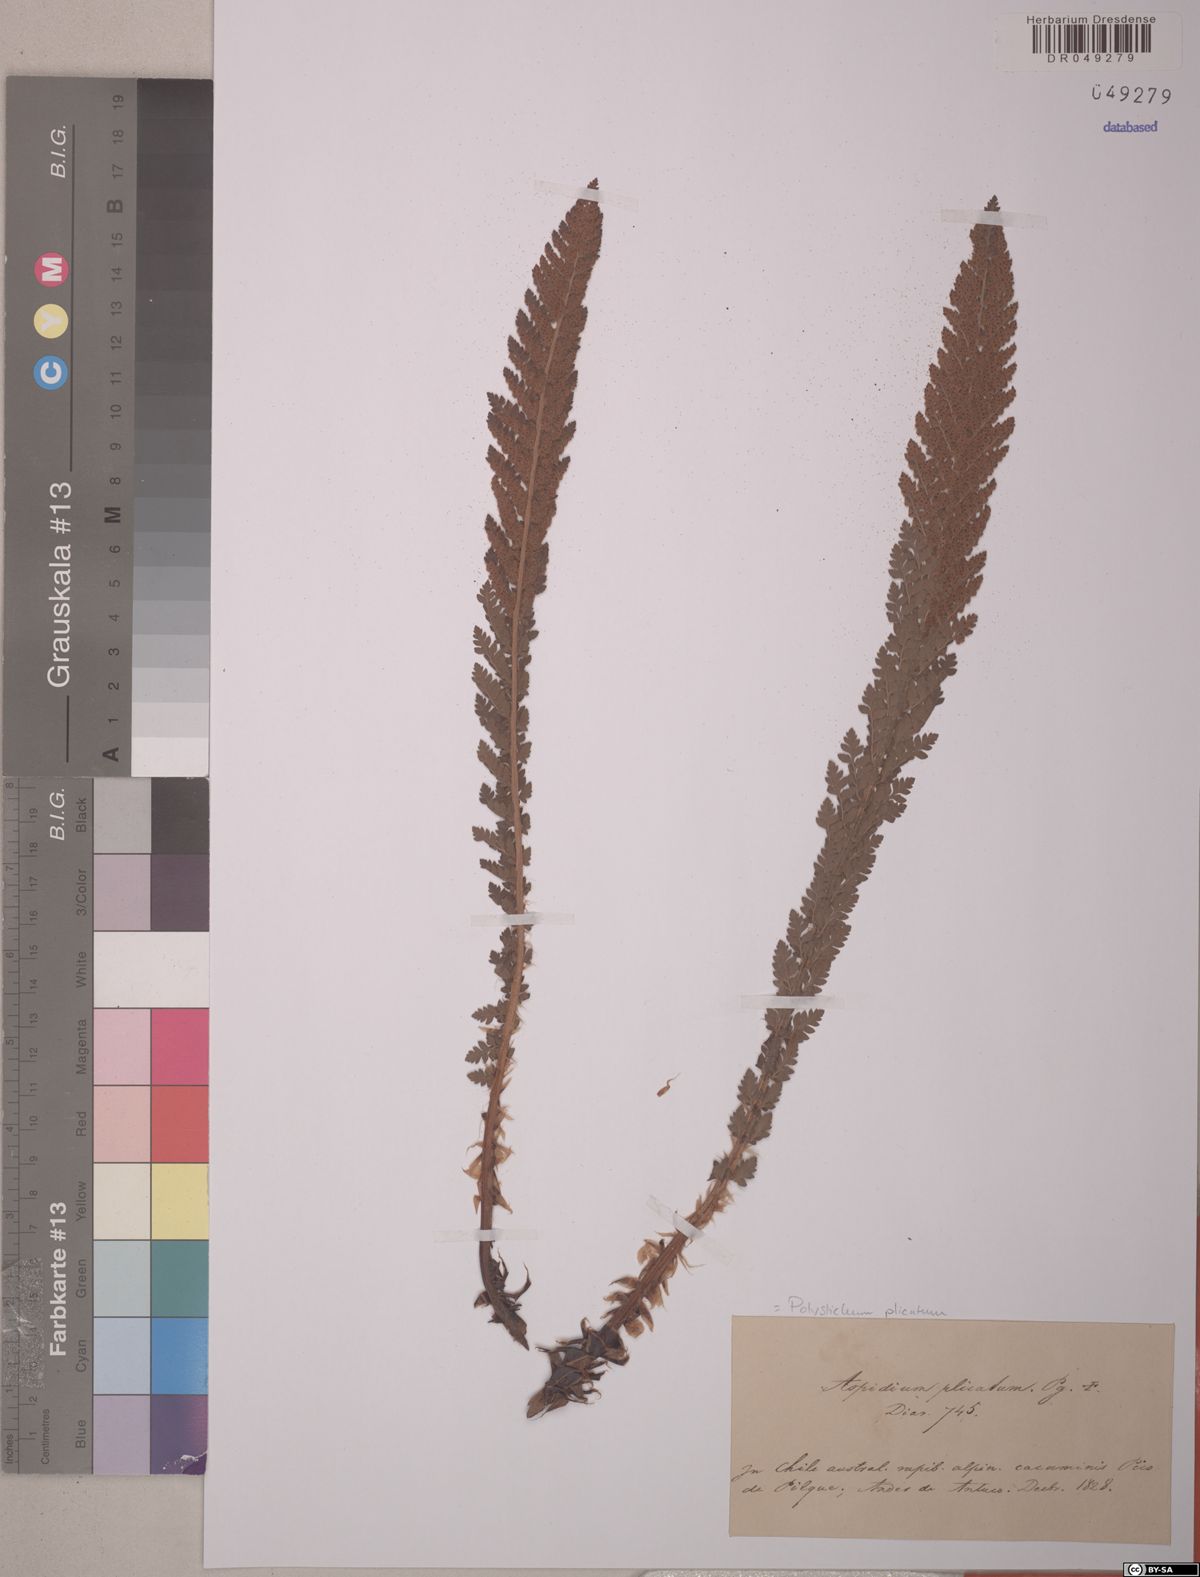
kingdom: Plantae
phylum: Tracheophyta
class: Polypodiopsida
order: Polypodiales
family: Dryopteridaceae
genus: Polystichum
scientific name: Polystichum plicatum
